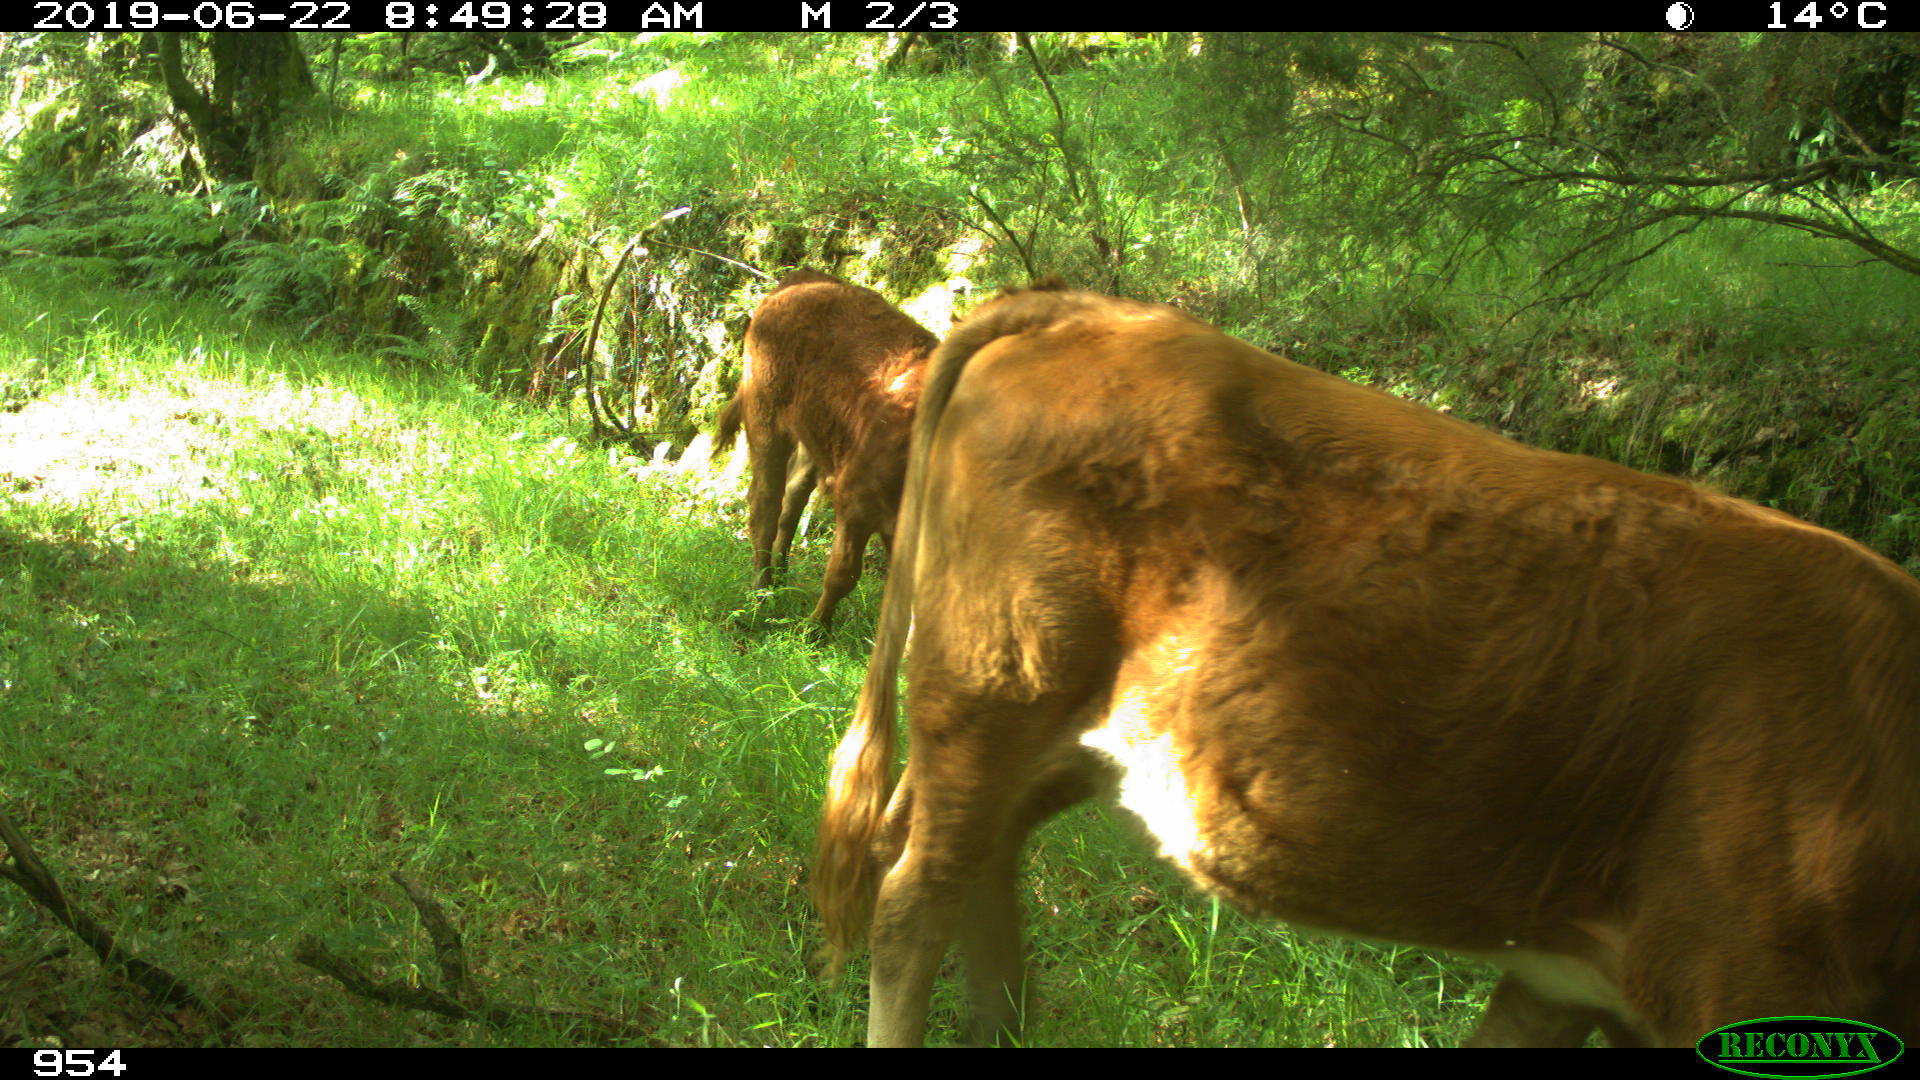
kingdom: Animalia
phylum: Chordata
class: Mammalia
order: Artiodactyla
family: Bovidae
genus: Bos
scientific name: Bos taurus
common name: Domesticated cattle
